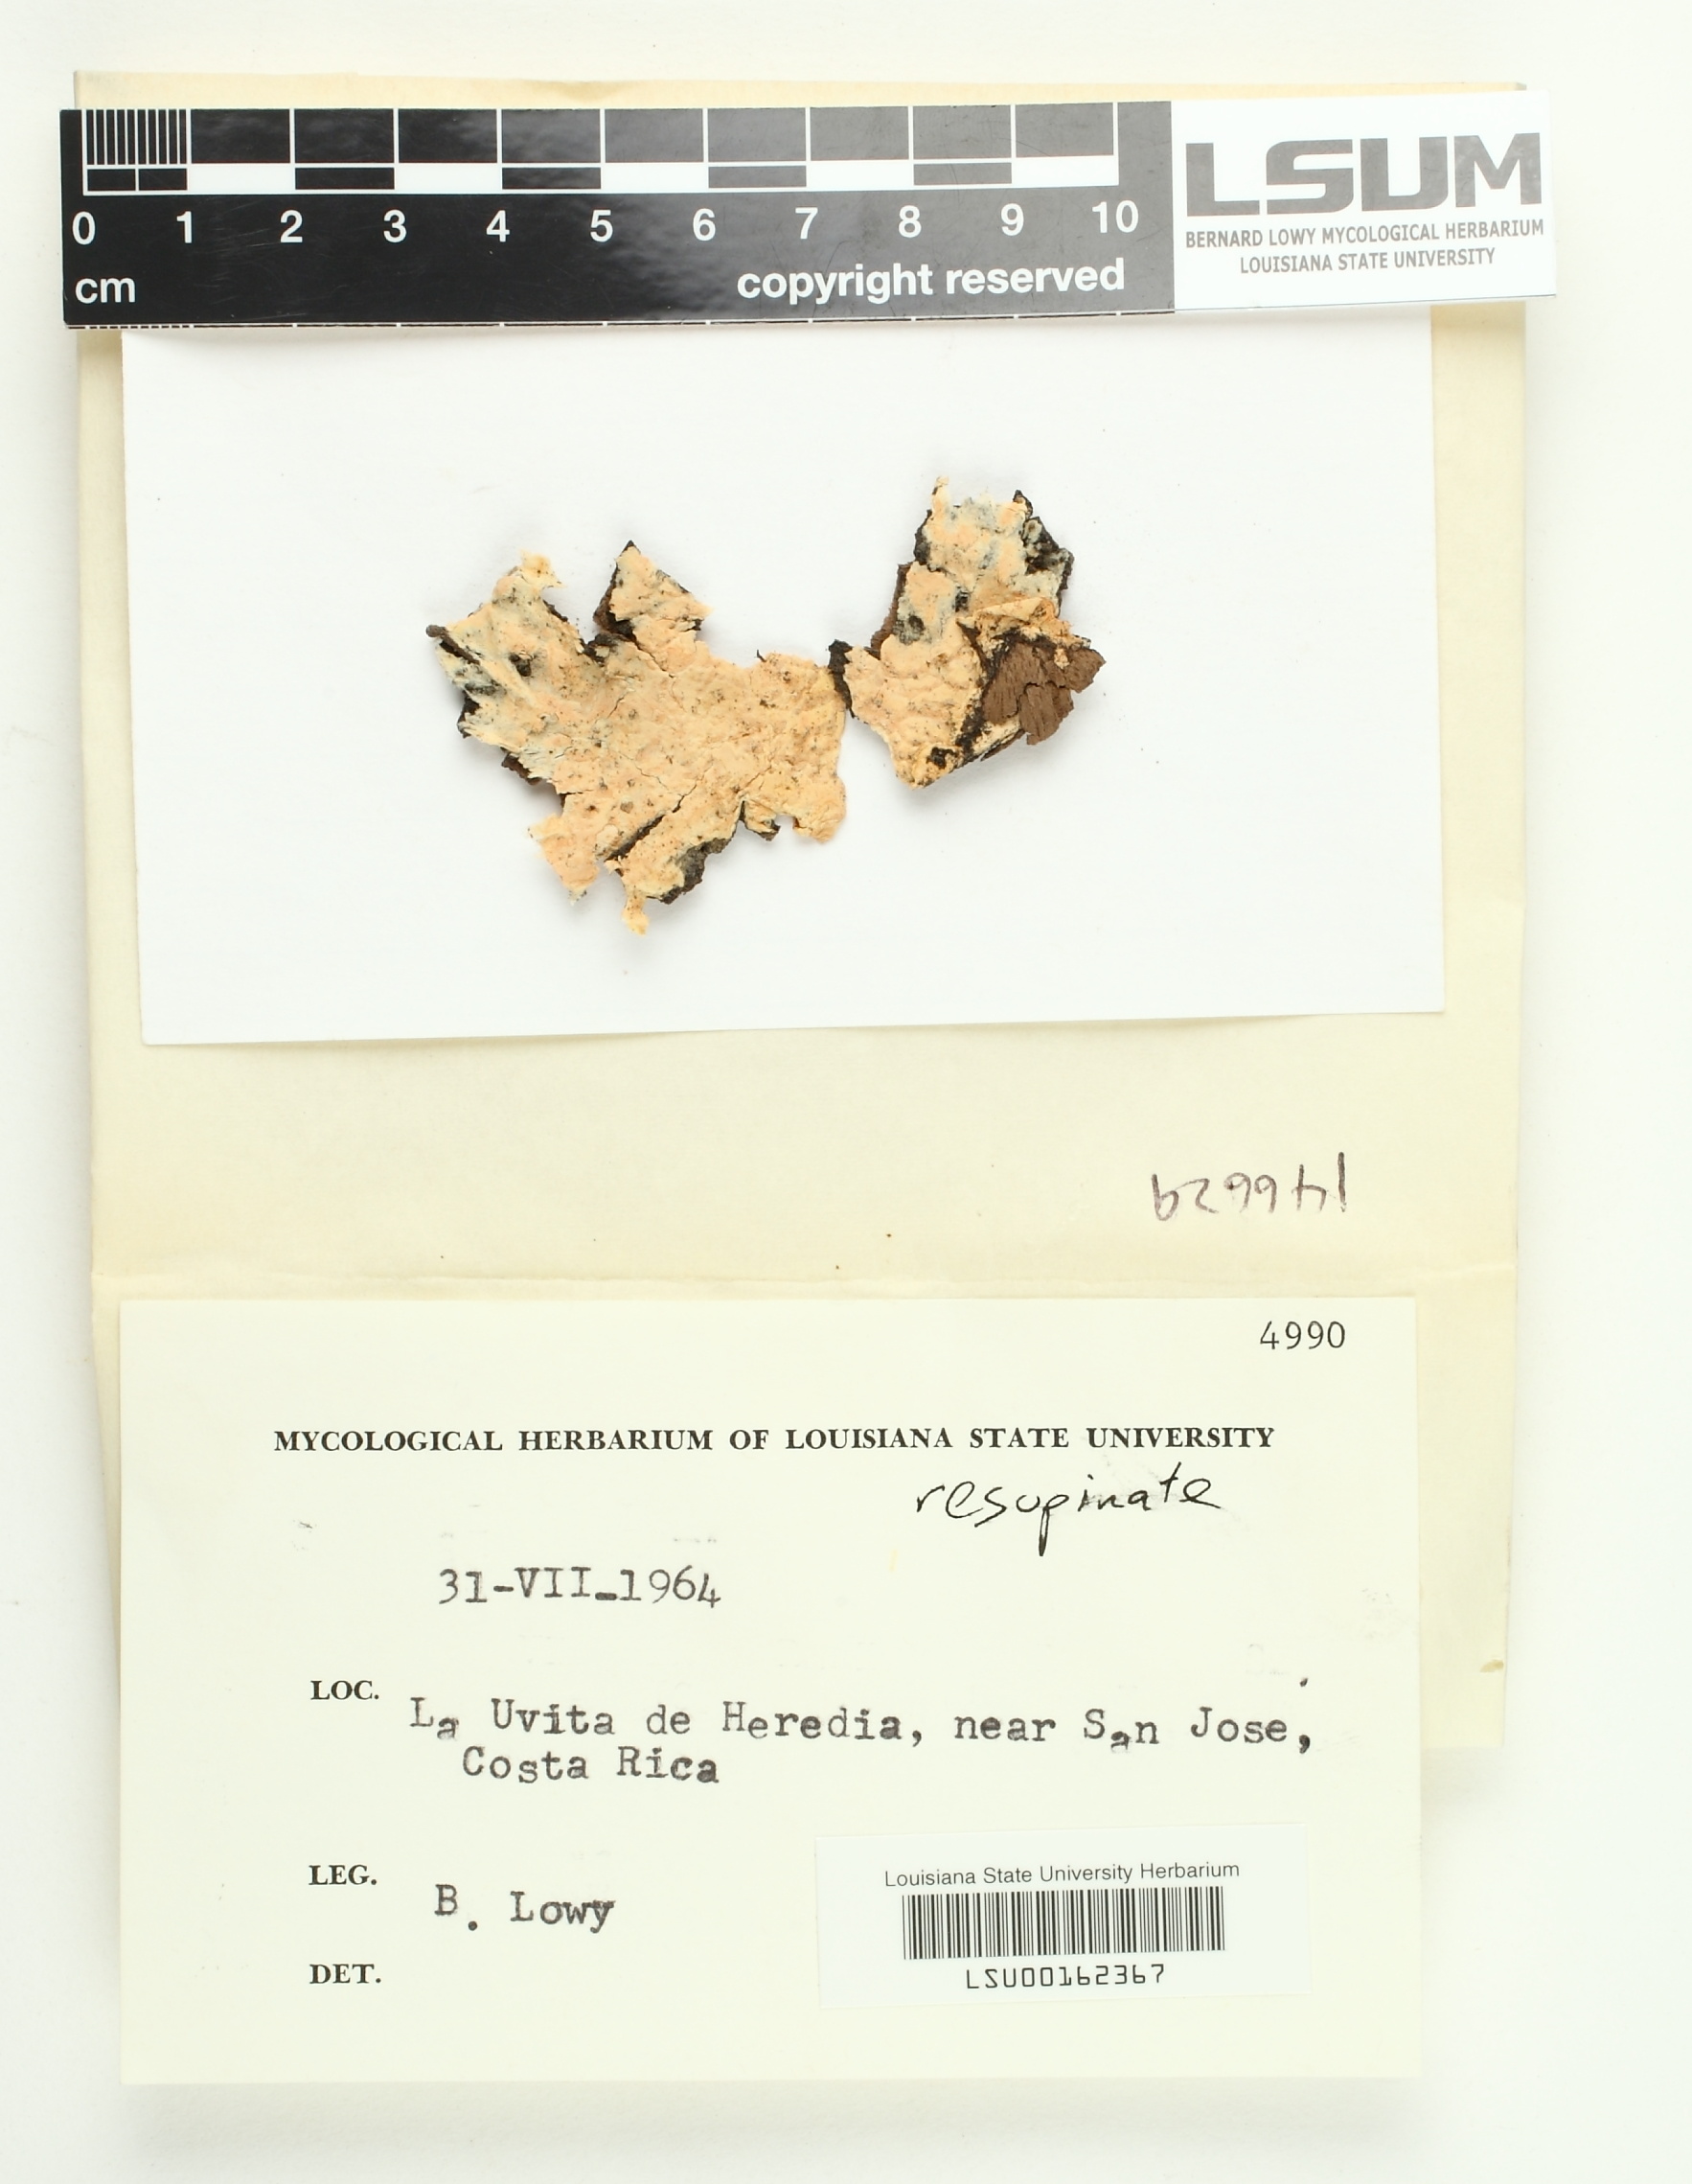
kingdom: Fungi
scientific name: Fungi
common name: Fungi
